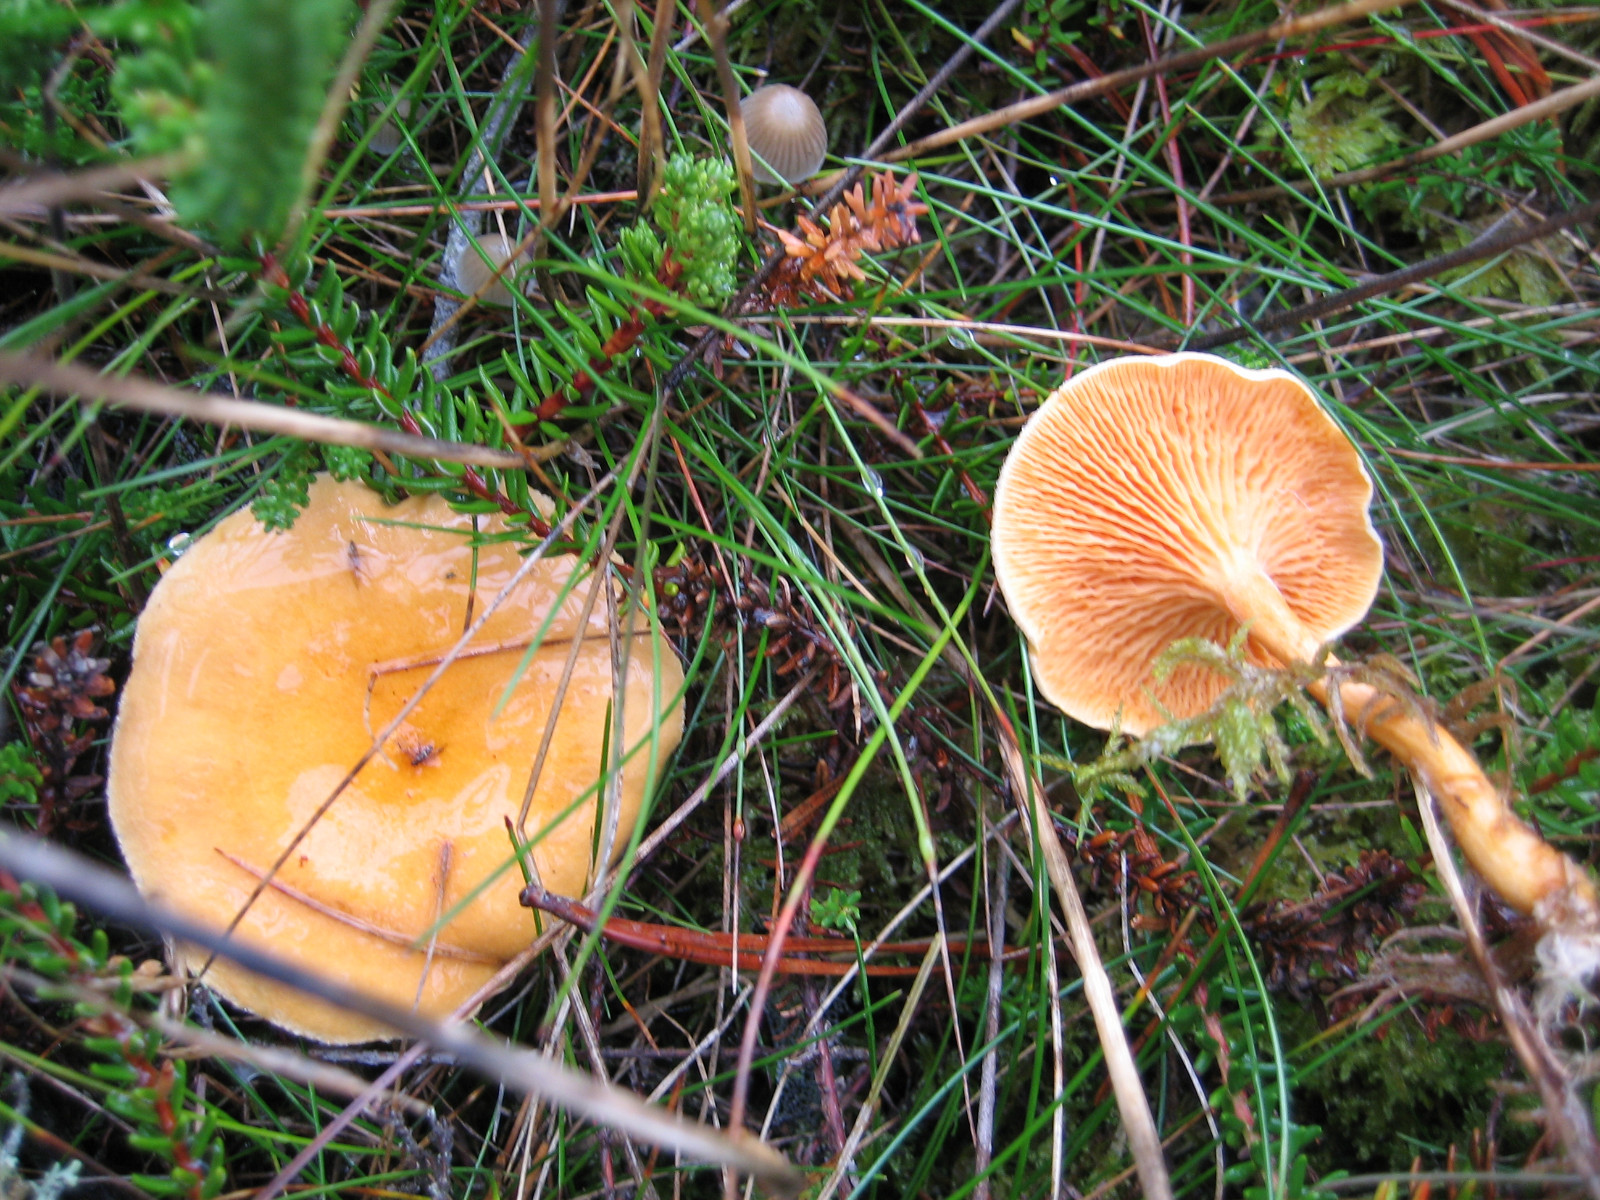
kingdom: Fungi
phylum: Basidiomycota
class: Agaricomycetes
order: Boletales
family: Hygrophoropsidaceae
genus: Hygrophoropsis
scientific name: Hygrophoropsis aurantiaca
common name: almindelig orangekantarel
